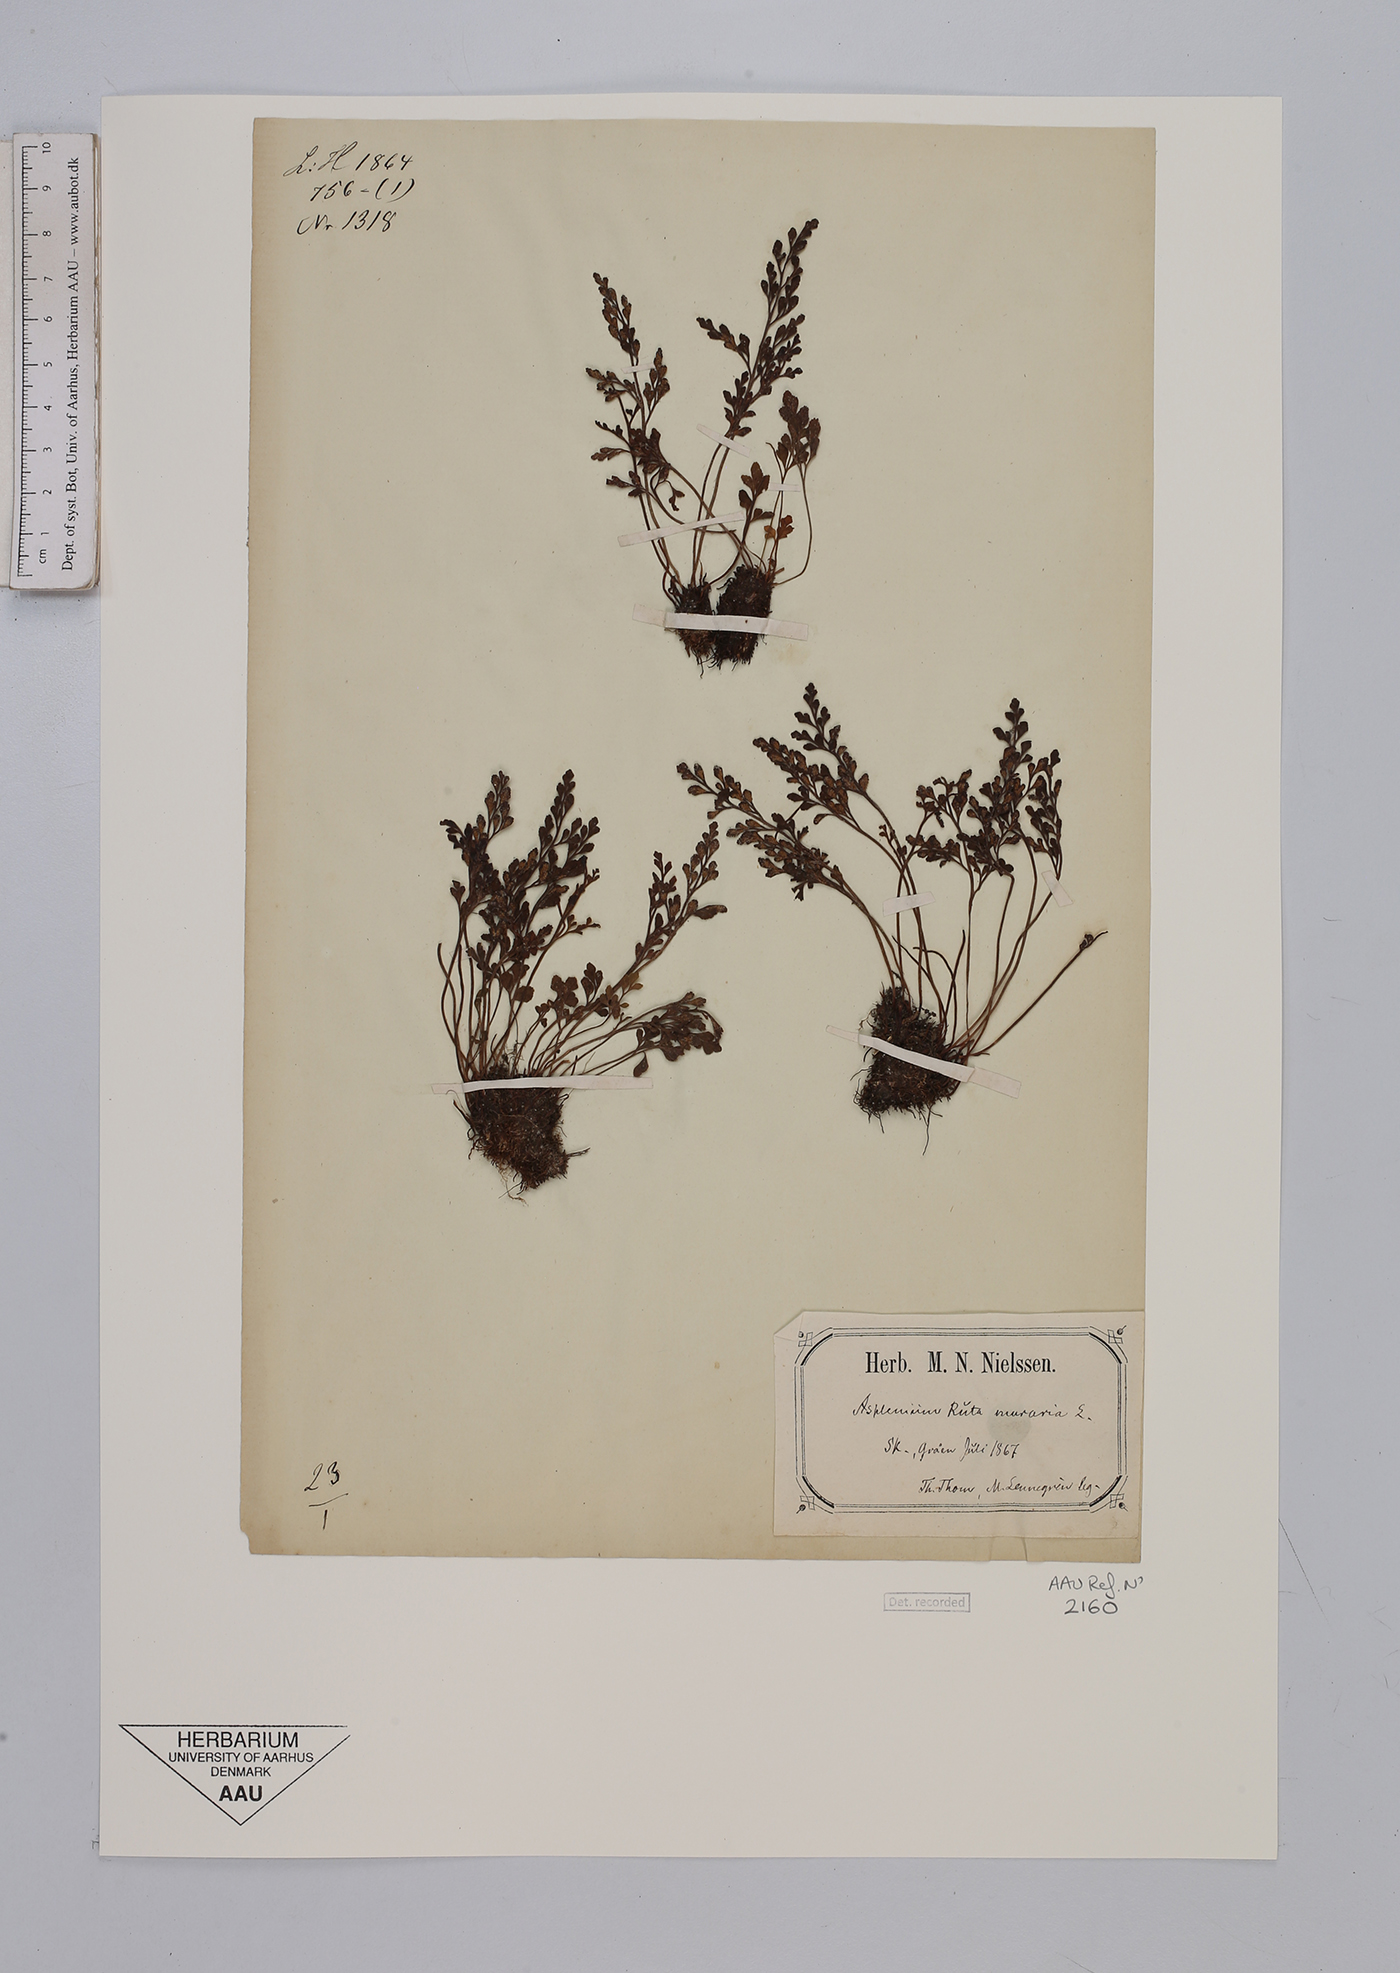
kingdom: Plantae
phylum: Tracheophyta
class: Polypodiopsida
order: Polypodiales
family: Aspleniaceae
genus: Asplenium
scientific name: Asplenium ruta-muraria
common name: Wall-rue
